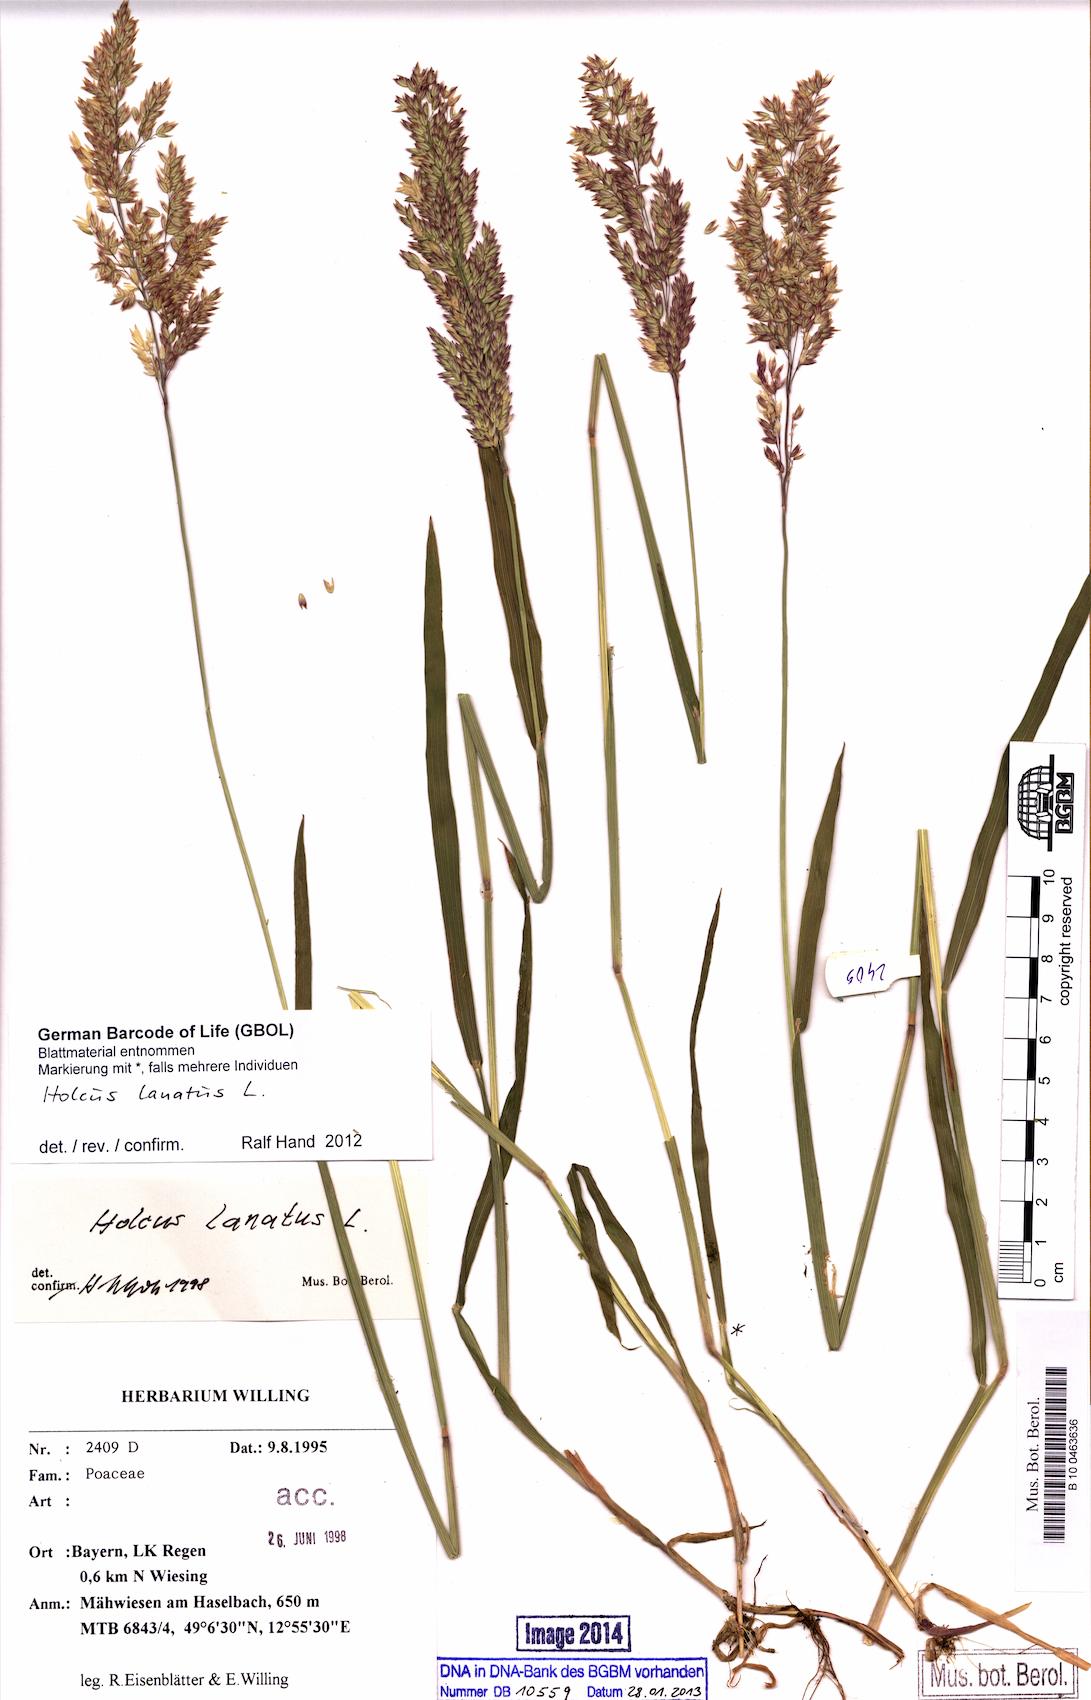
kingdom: Plantae
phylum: Tracheophyta
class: Liliopsida
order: Poales
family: Poaceae
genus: Holcus
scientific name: Holcus lanatus
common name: Yorkshire-fog
